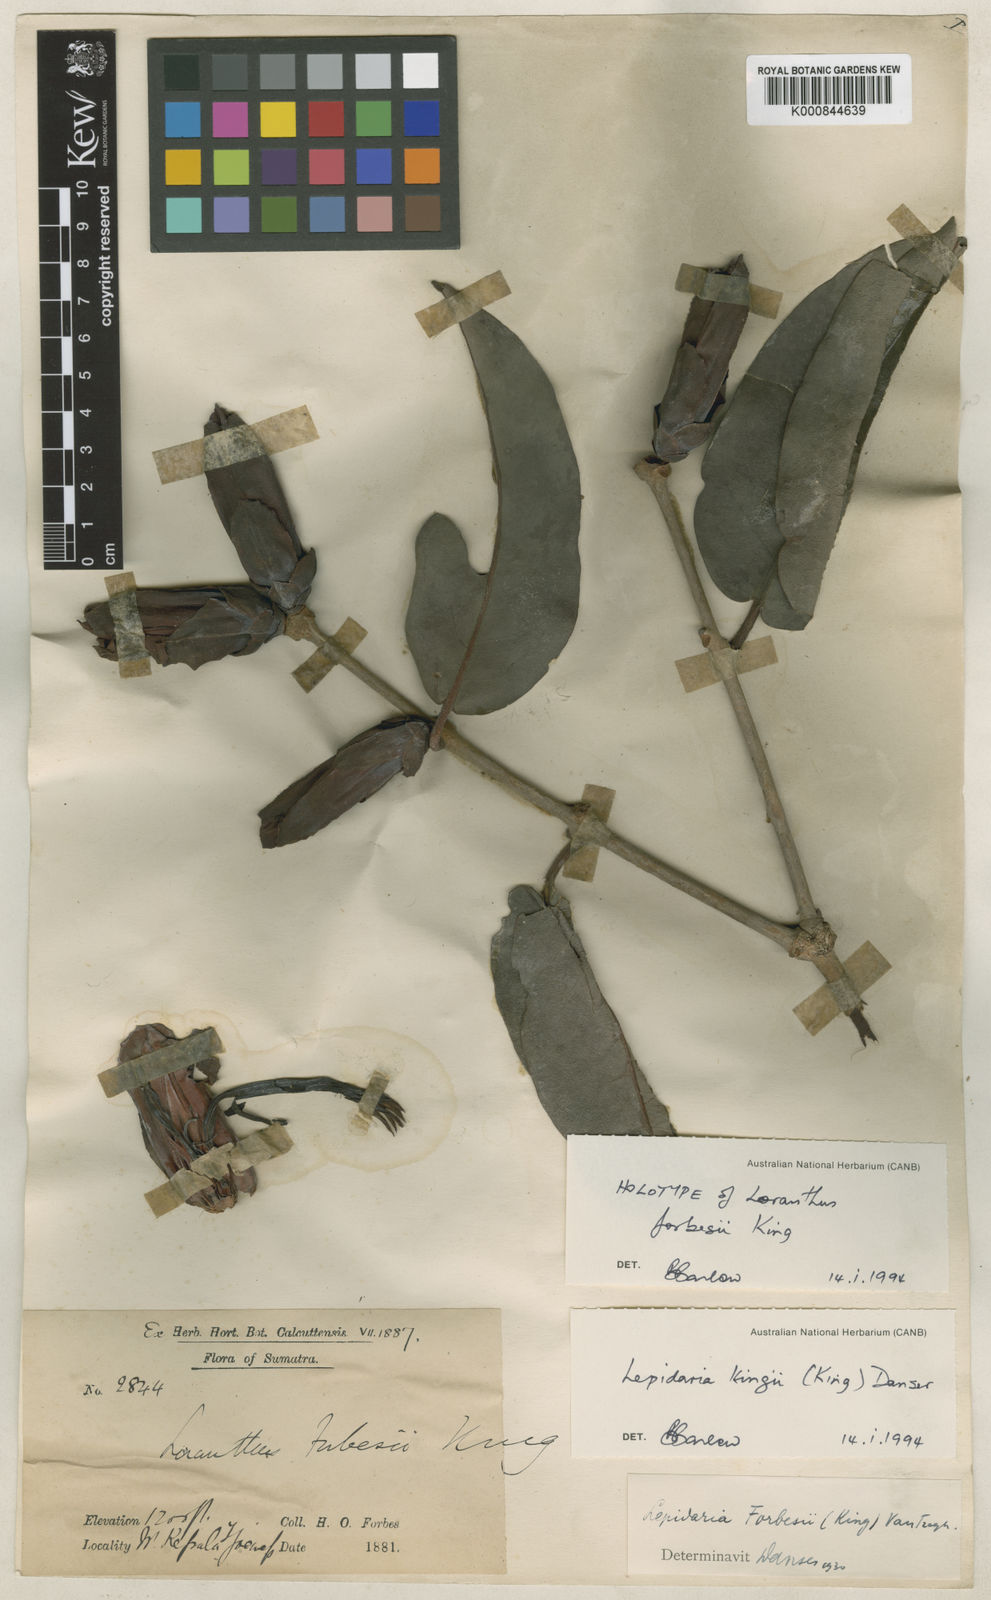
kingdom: Plantae
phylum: Tracheophyta
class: Magnoliopsida
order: Santalales
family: Loranthaceae
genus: Lepidaria
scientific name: Lepidaria kingii
